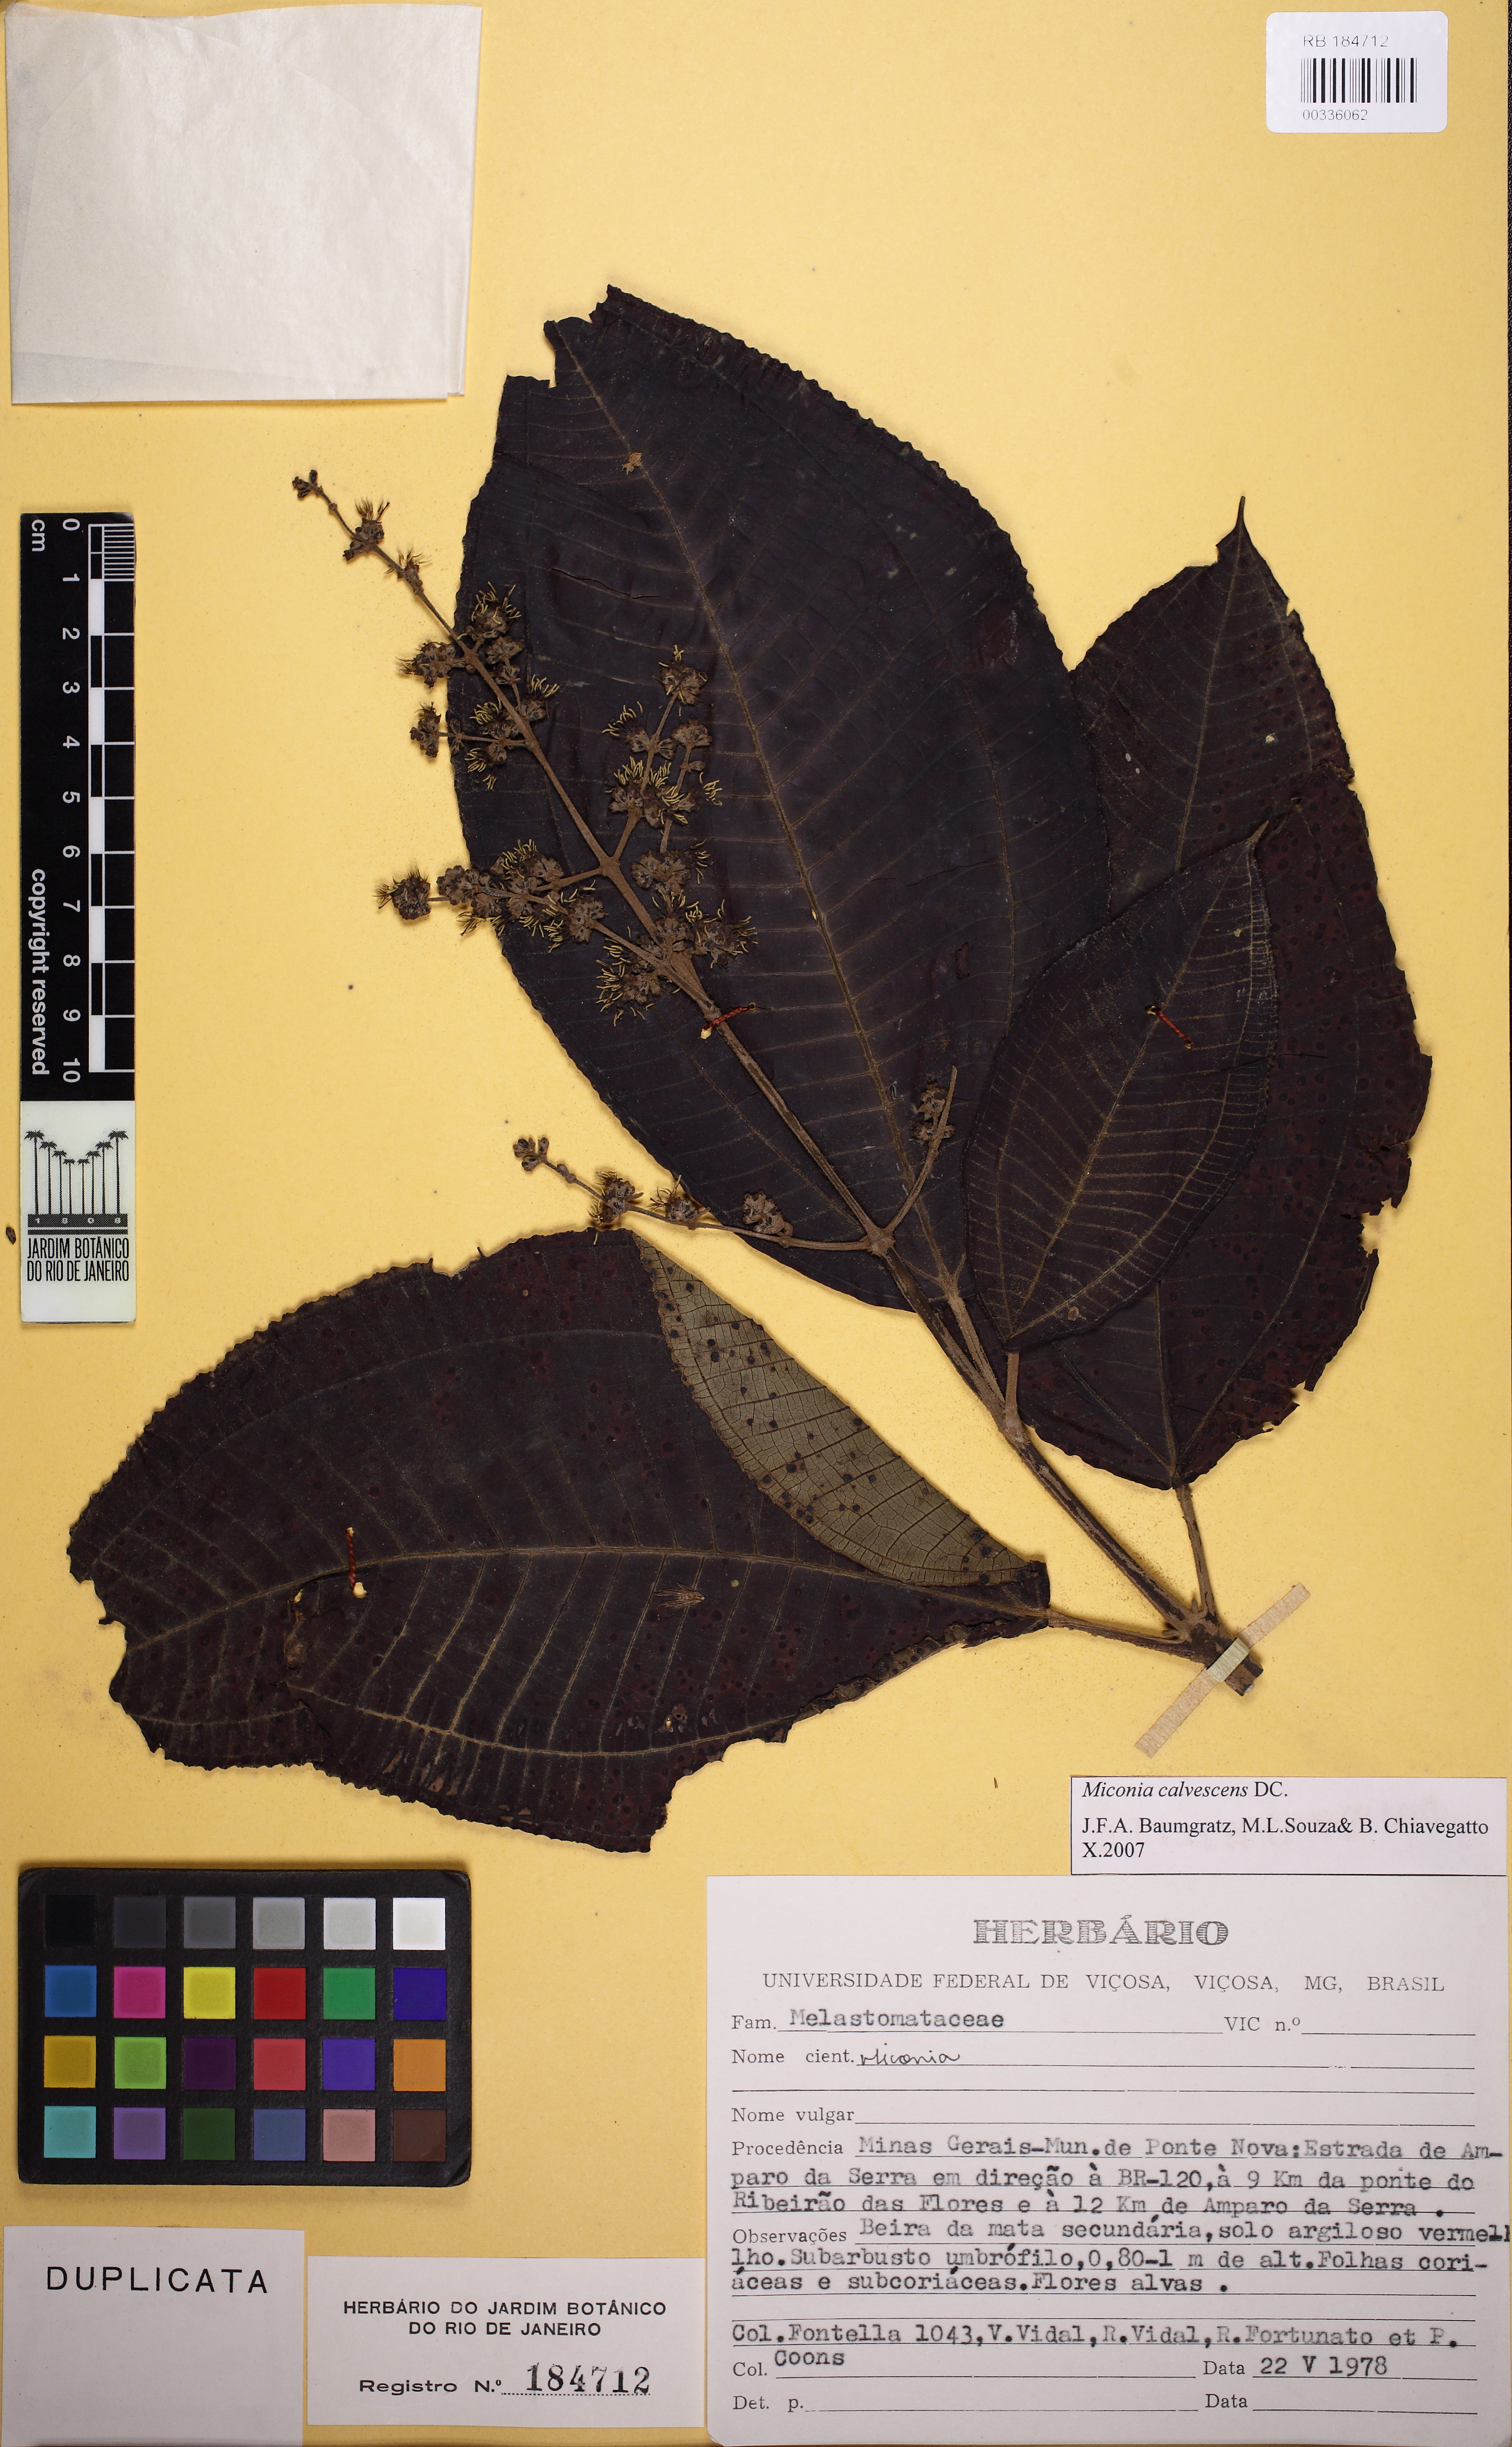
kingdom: Plantae
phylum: Tracheophyta
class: Magnoliopsida
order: Myrtales
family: Melastomataceae
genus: Miconia
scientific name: Miconia calvescens
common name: Purple plague
